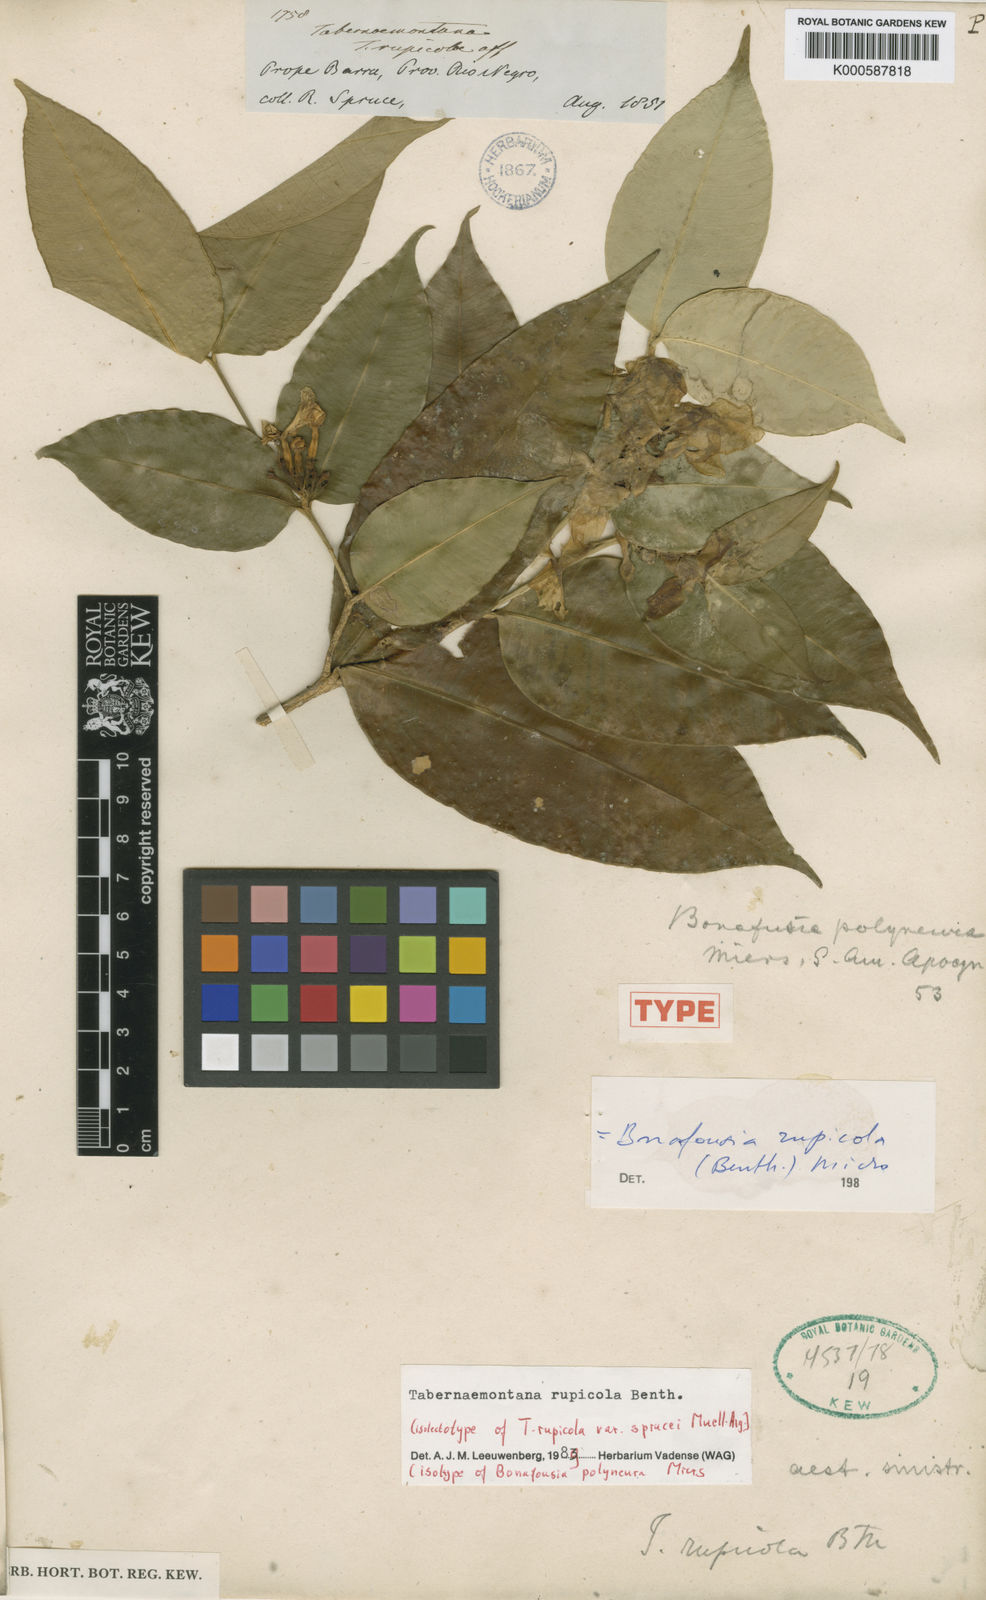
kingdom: Plantae
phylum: Tracheophyta
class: Magnoliopsida
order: Gentianales
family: Apocynaceae
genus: Tabernaemontana
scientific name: Tabernaemontana rupicola
